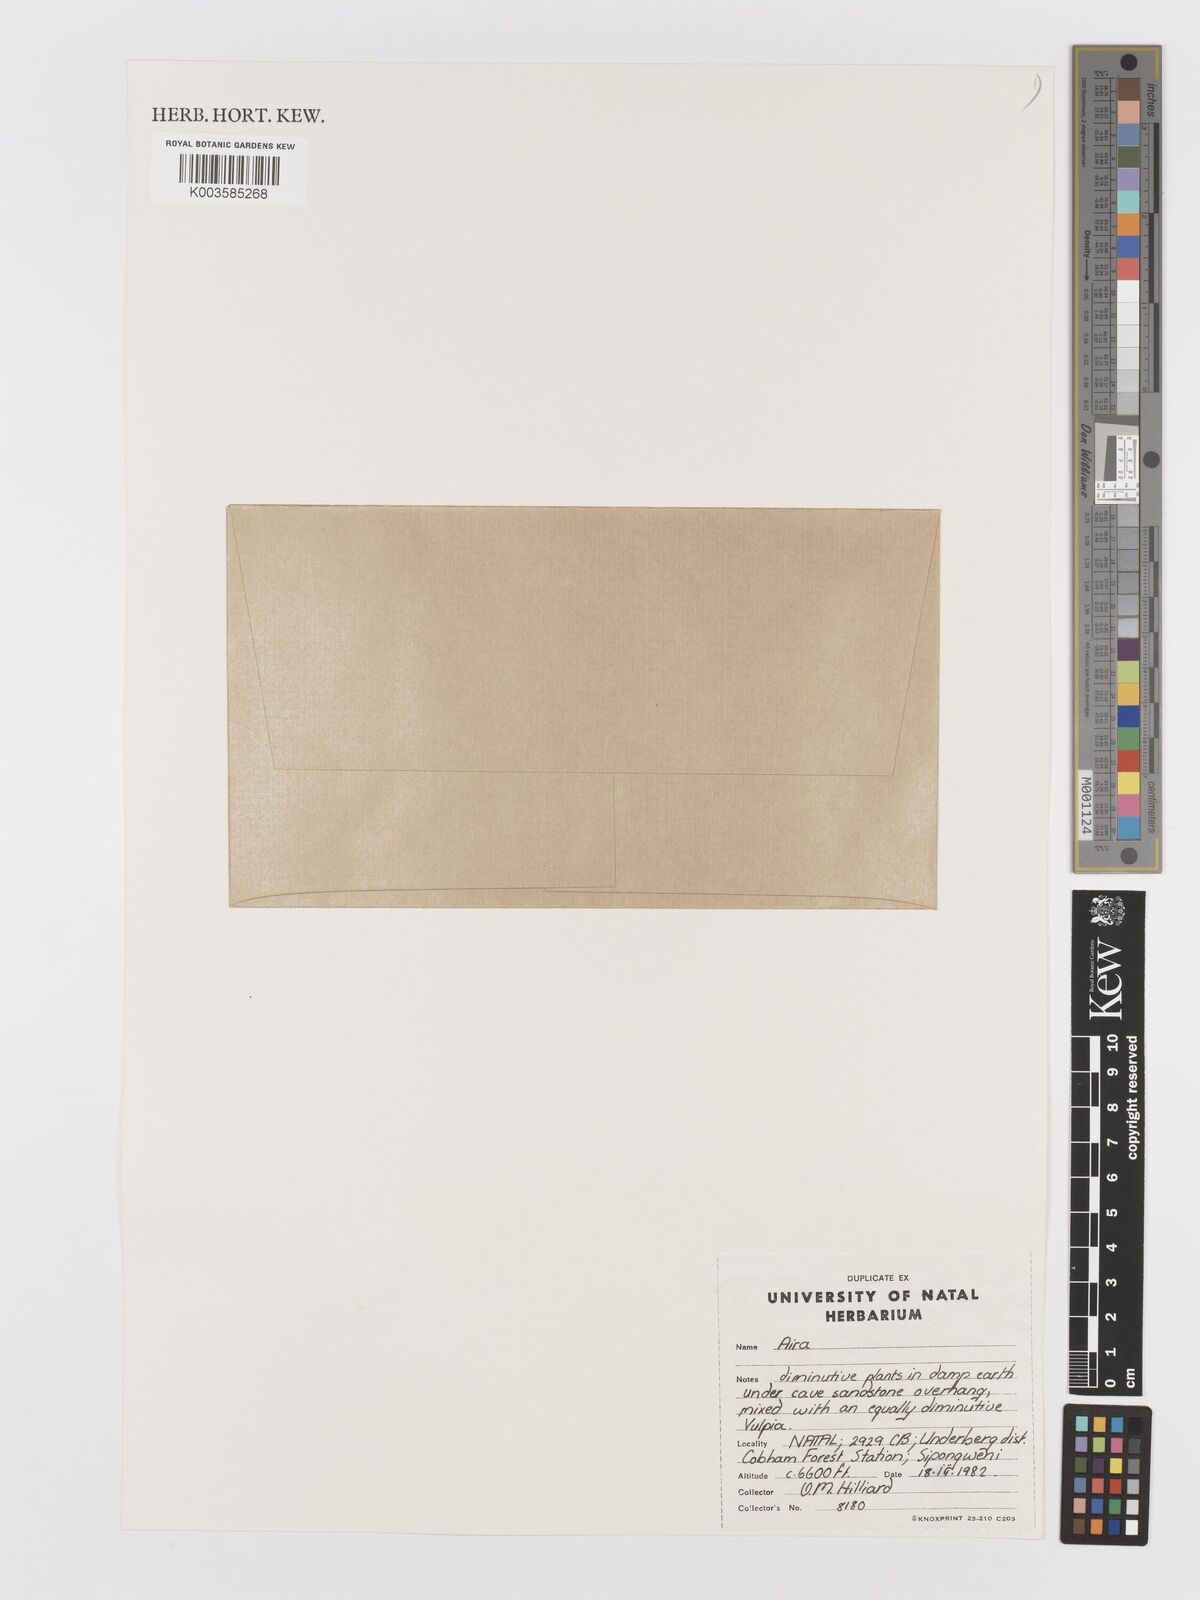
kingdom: Plantae
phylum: Tracheophyta
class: Liliopsida
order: Poales
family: Poaceae
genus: Aira
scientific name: Aira cupaniana
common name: Silver hairgrass
